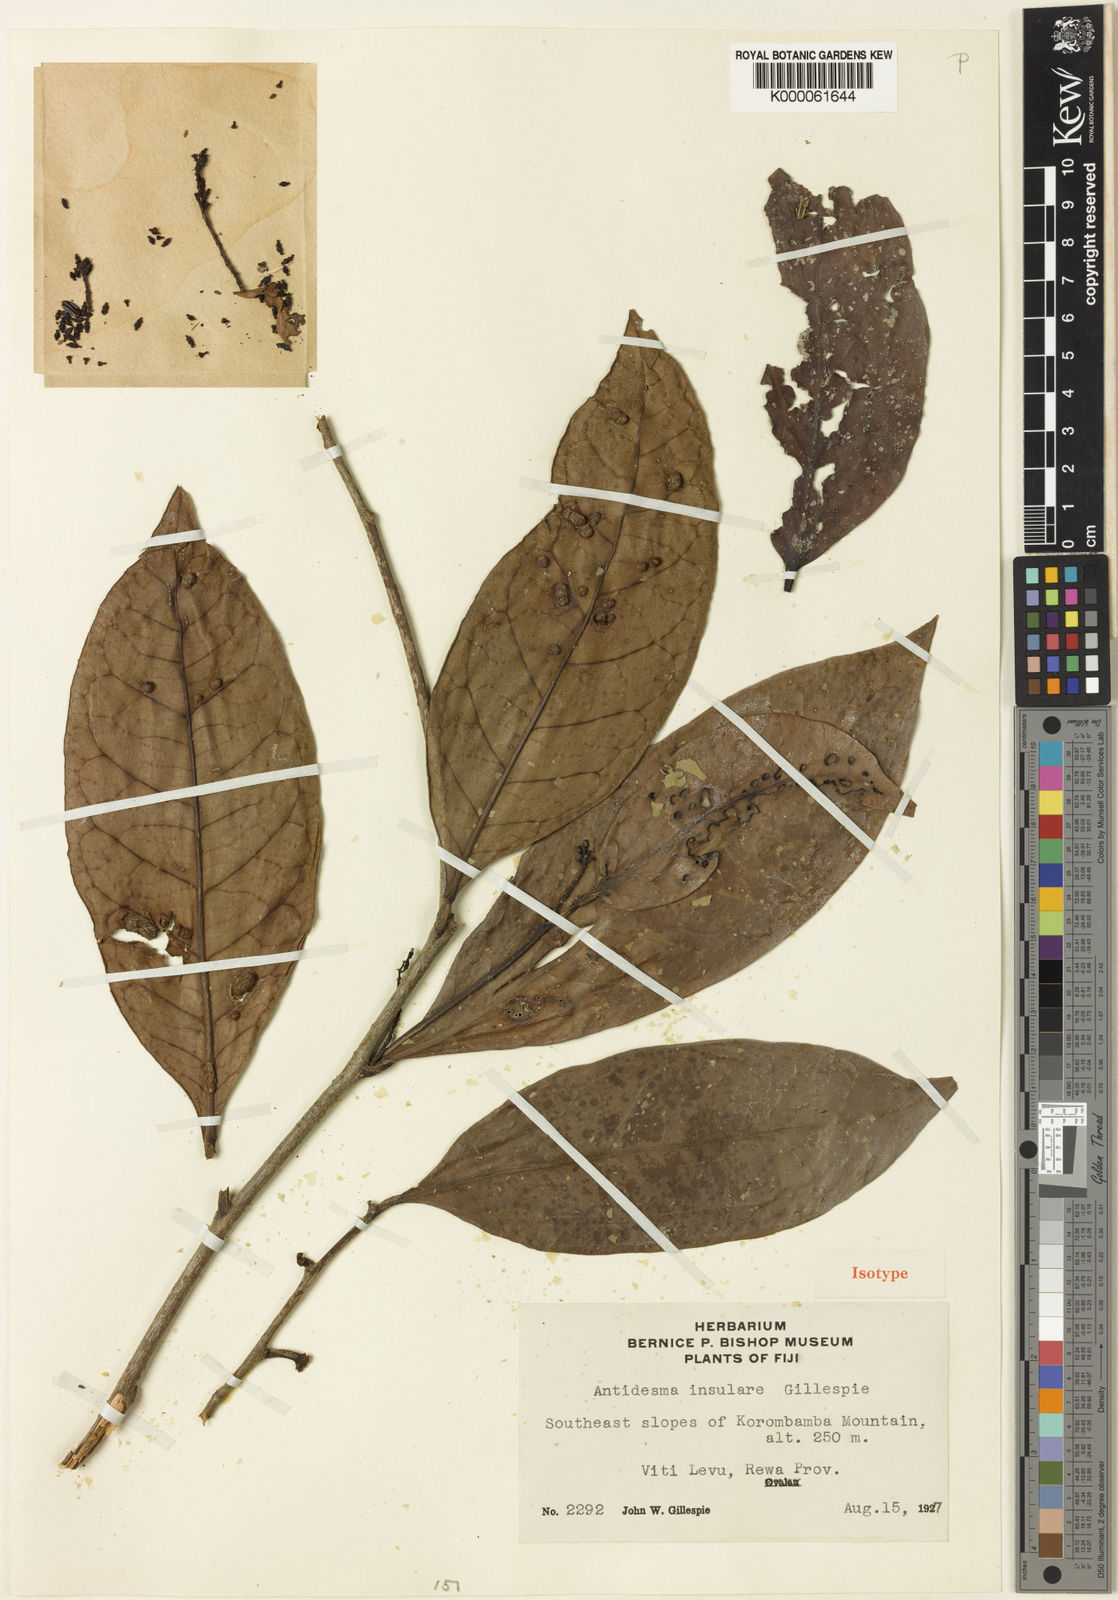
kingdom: Plantae
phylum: Tracheophyta
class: Magnoliopsida
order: Malpighiales
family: Phyllanthaceae
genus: Antidesma
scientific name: Antidesma insulare
